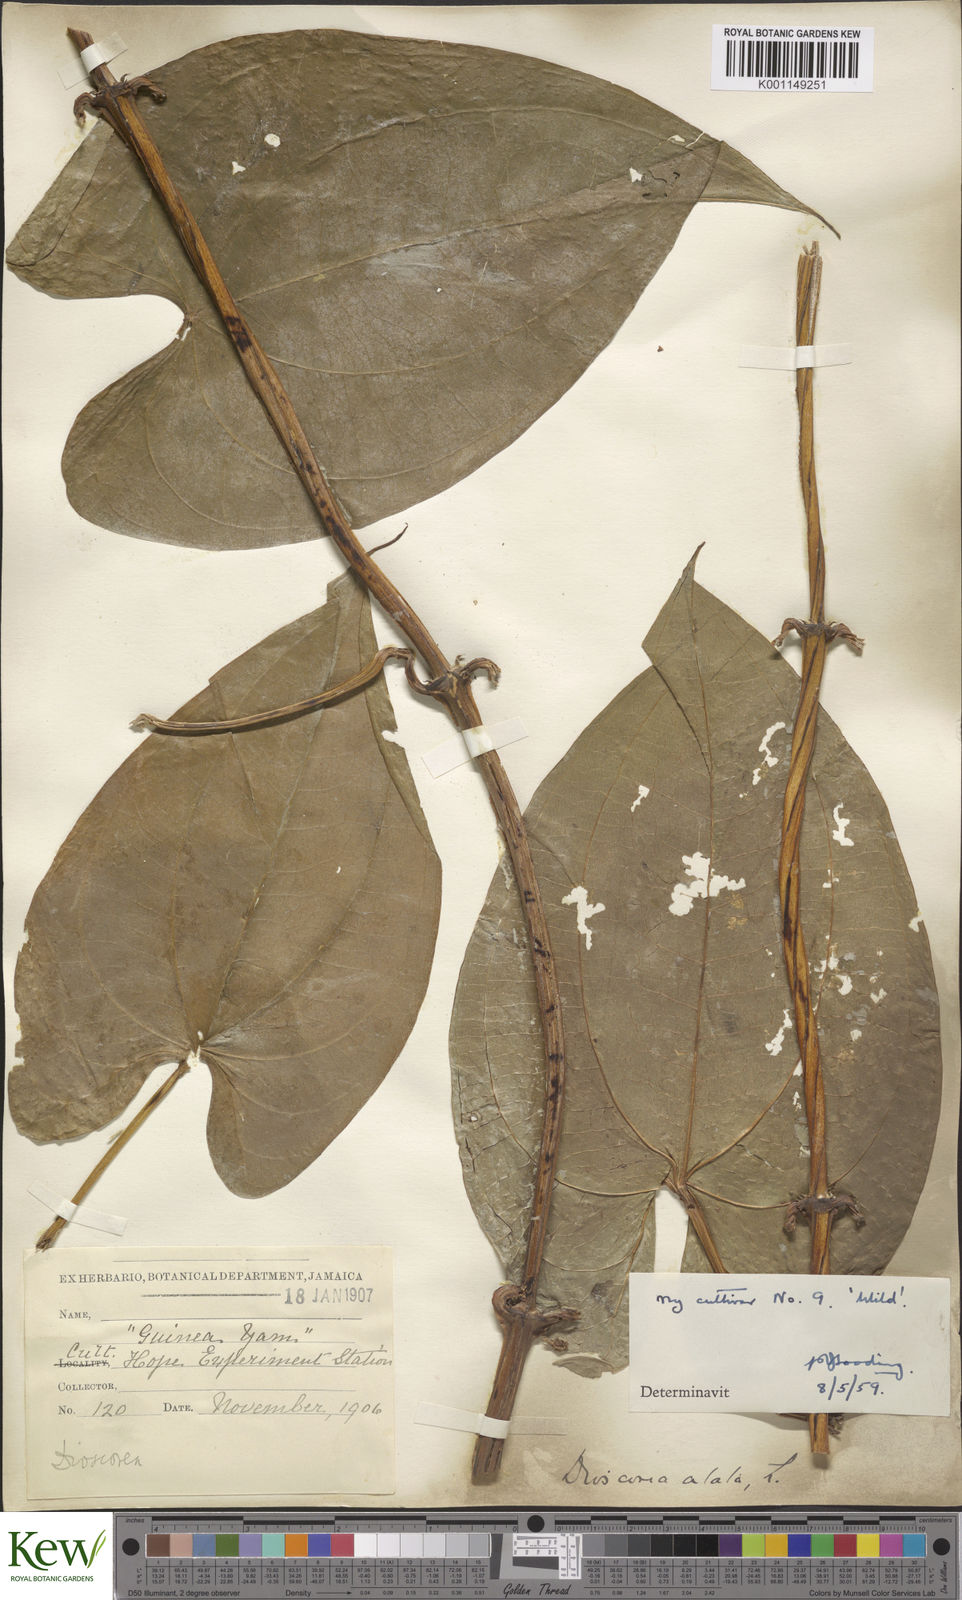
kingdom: Plantae
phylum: Tracheophyta
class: Liliopsida
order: Dioscoreales
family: Dioscoreaceae
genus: Dioscorea
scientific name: Dioscorea alata
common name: Water yam
